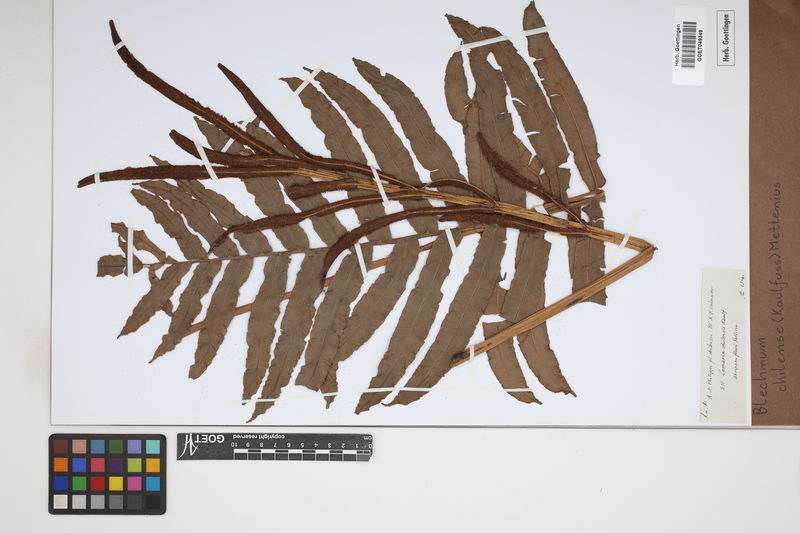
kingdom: Plantae
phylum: Tracheophyta
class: Polypodiopsida
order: Polypodiales
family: Blechnaceae
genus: Parablechnum
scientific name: Parablechnum chilense
